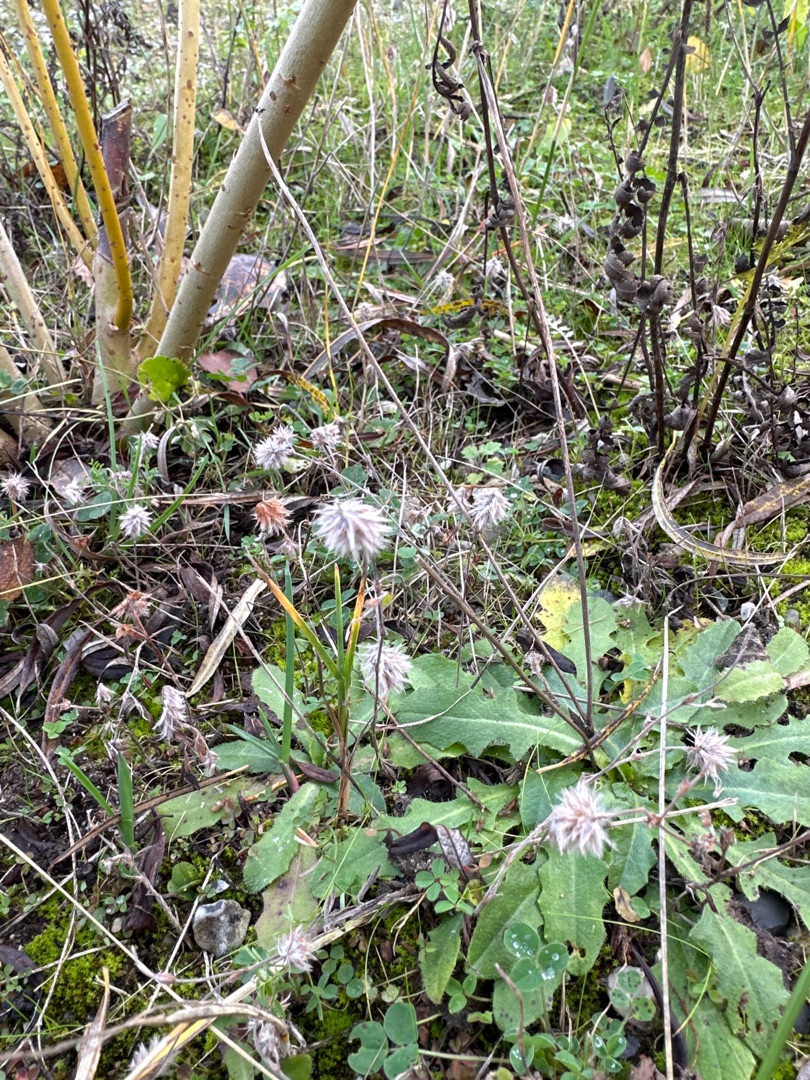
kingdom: Plantae
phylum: Tracheophyta
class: Magnoliopsida
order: Fabales
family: Fabaceae
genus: Trifolium
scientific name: Trifolium arvense
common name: Hare-kløver
